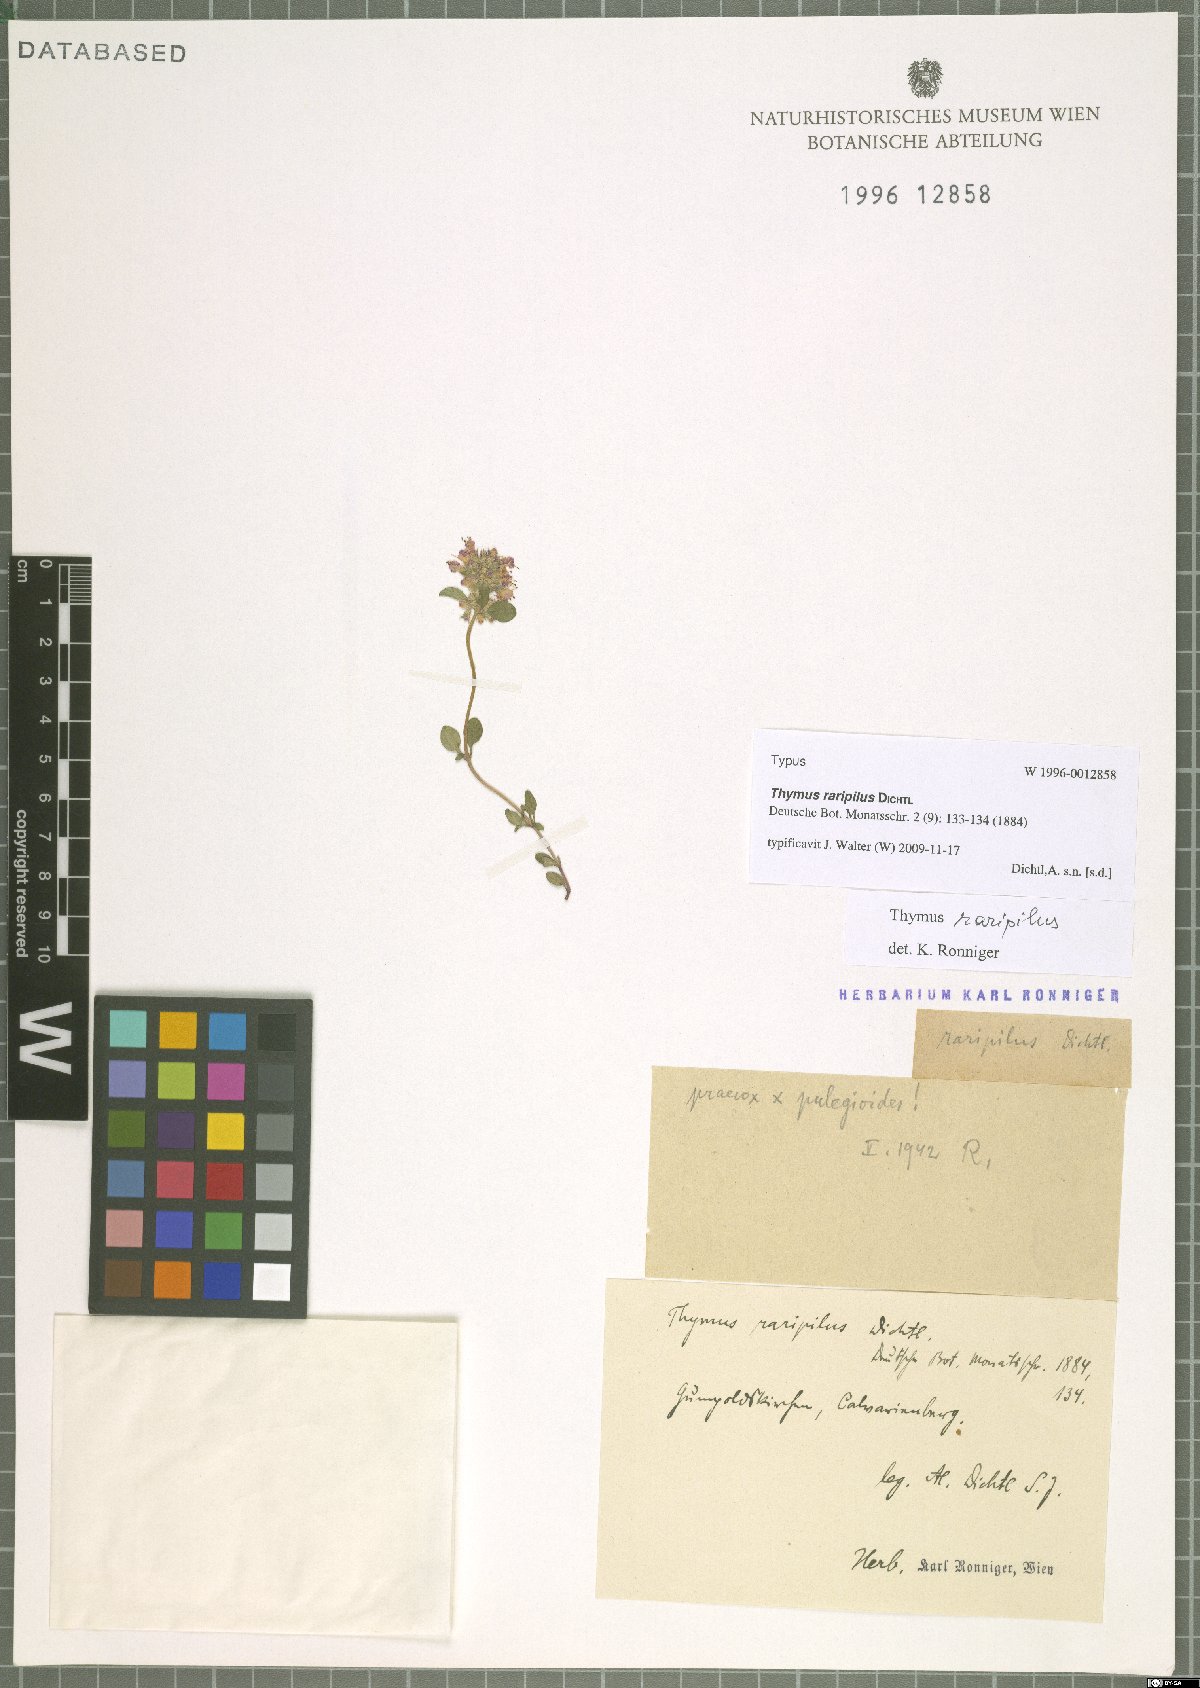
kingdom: Plantae
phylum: Tracheophyta
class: Magnoliopsida
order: Lamiales
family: Lamiaceae
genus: Thymus
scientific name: Thymus serpyllum
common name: Breckland thyme
